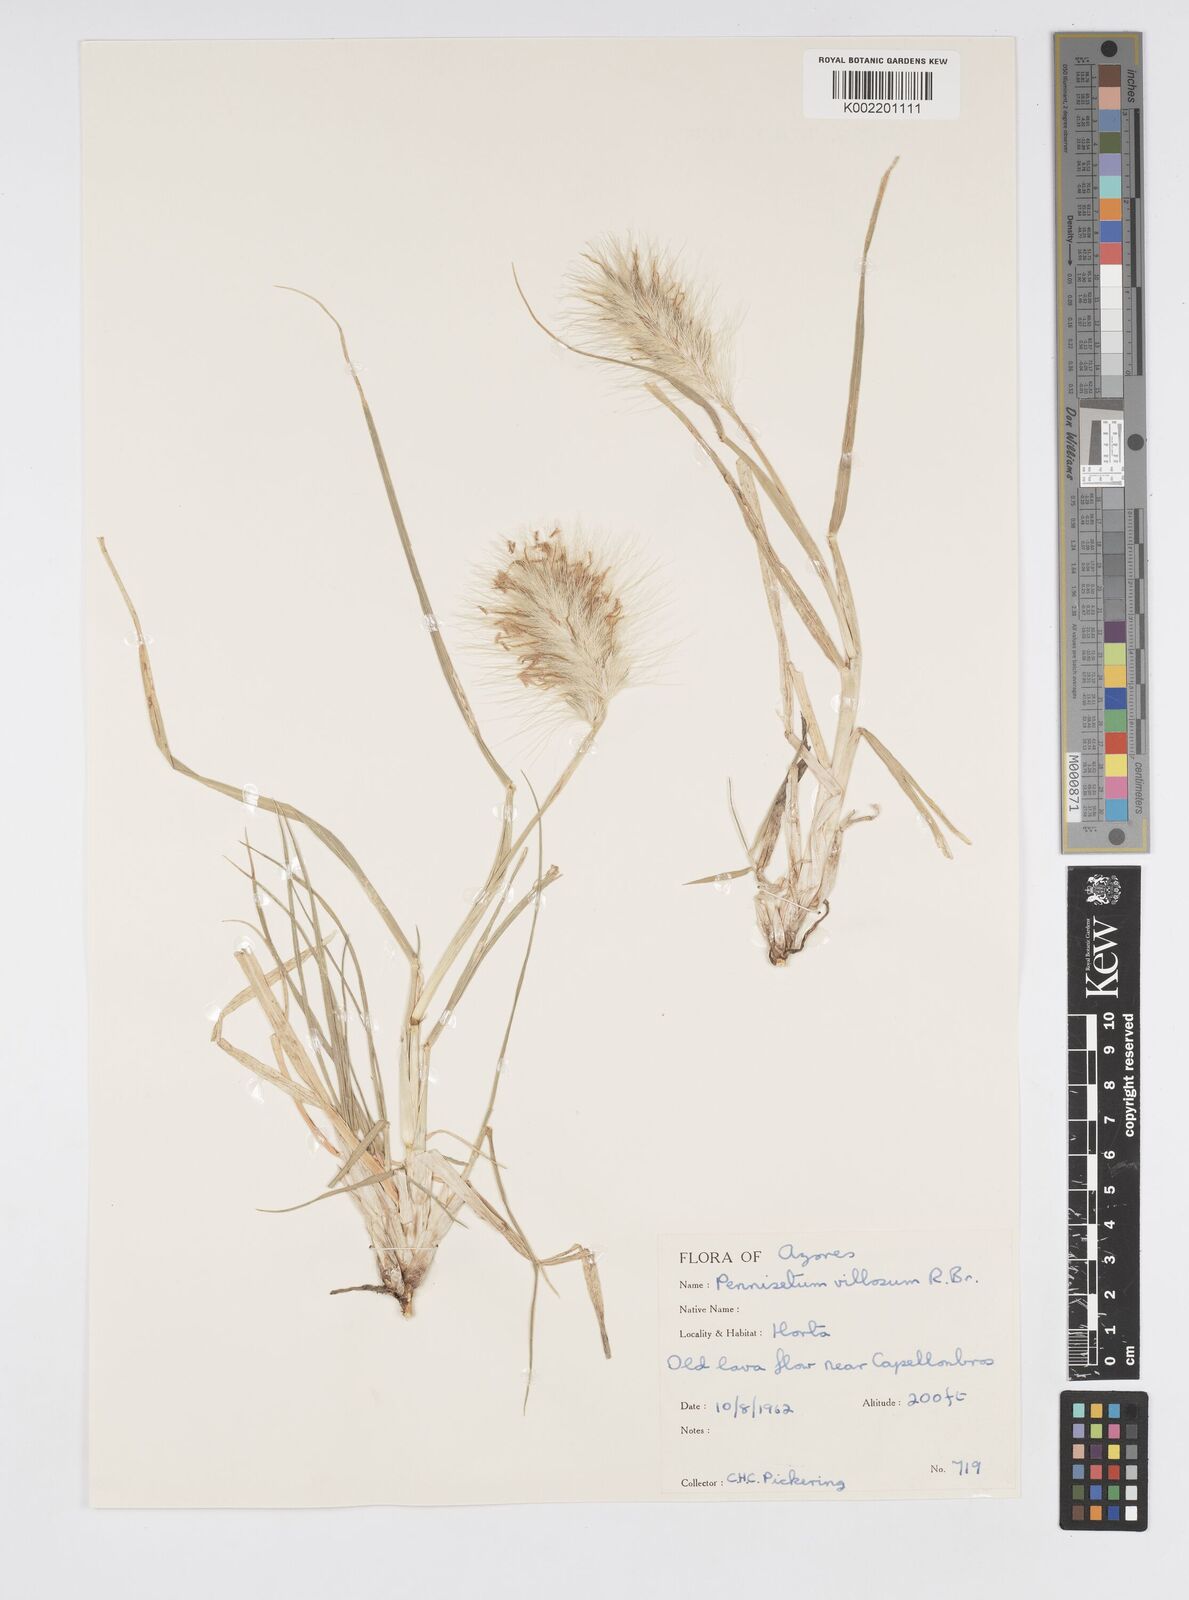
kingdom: Plantae
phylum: Tracheophyta
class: Liliopsida
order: Poales
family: Poaceae
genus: Cenchrus
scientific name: Cenchrus longisetus
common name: Feathertop
